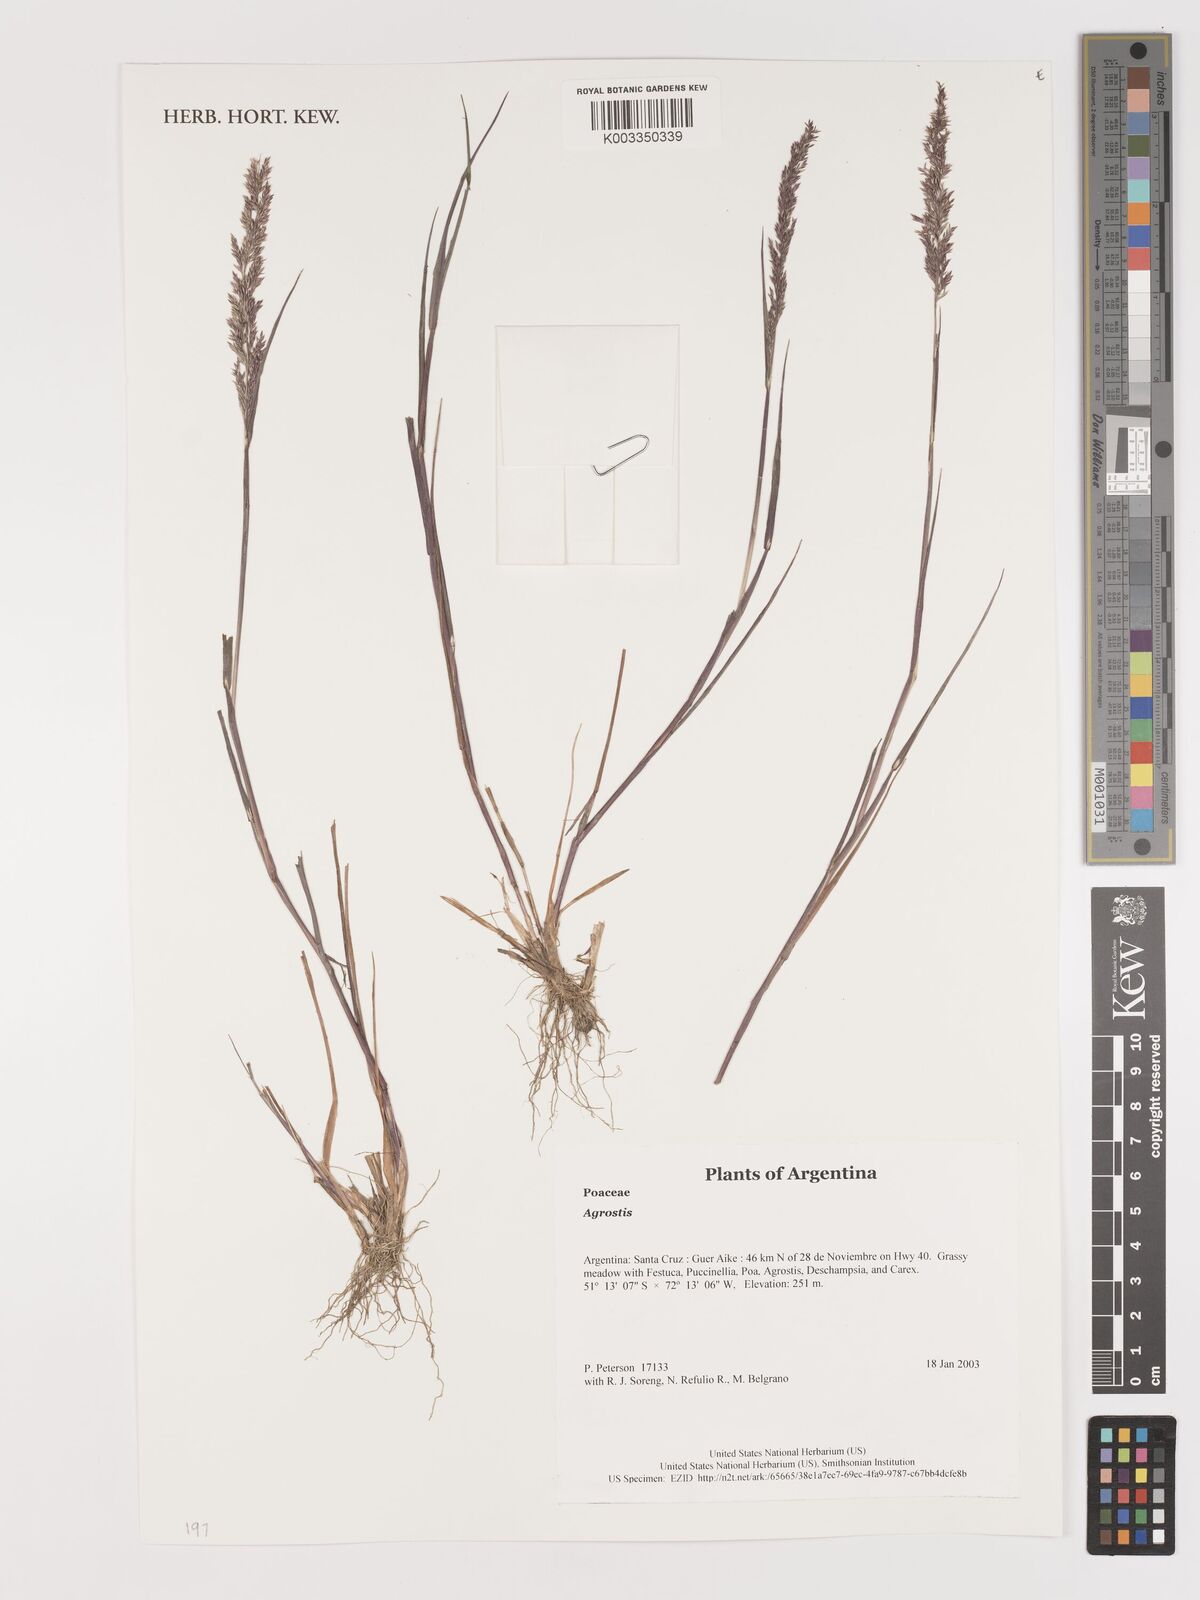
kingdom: Plantae
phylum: Tracheophyta
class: Liliopsida
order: Poales
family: Poaceae
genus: Agrostis
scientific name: Agrostis
